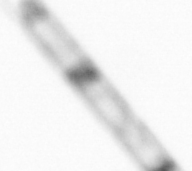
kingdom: Chromista
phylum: Ochrophyta
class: Bacillariophyceae
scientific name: Bacillariophyceae
